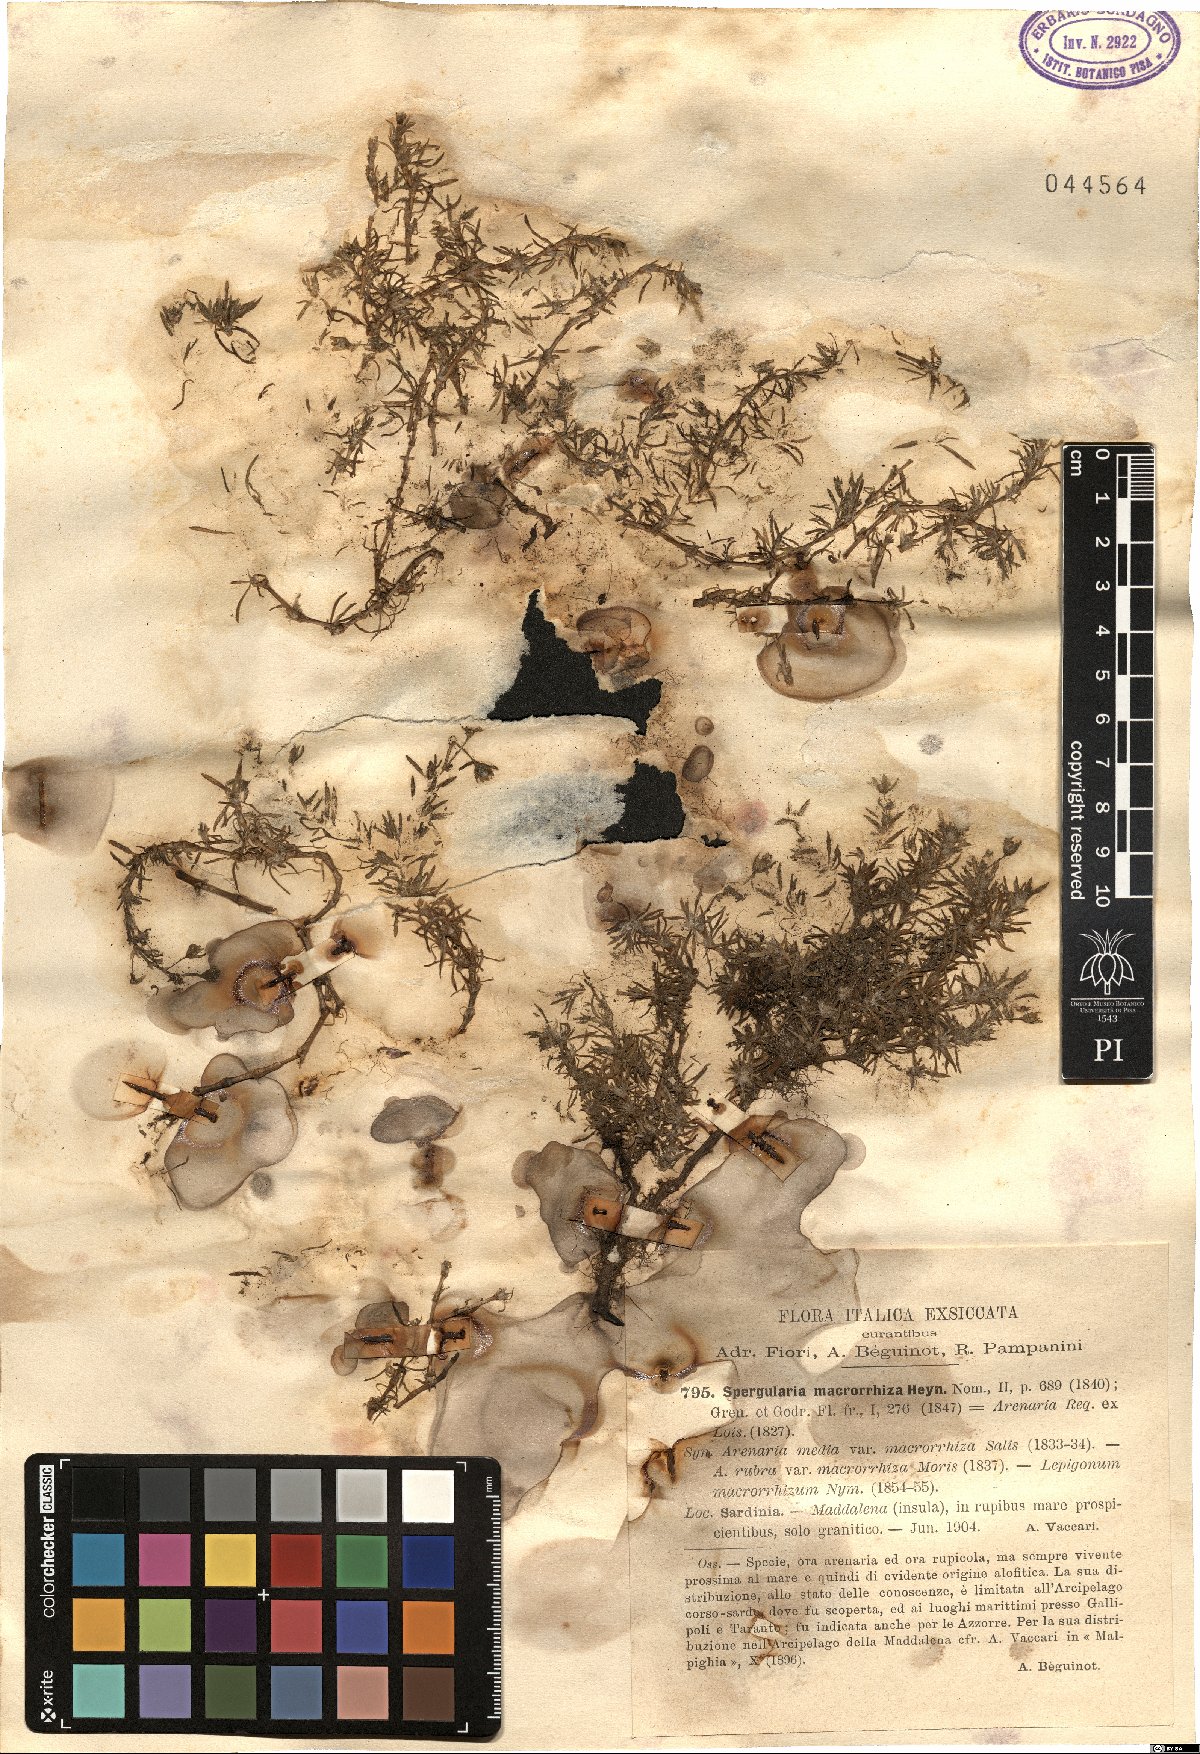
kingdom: Plantae
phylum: Tracheophyta
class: Magnoliopsida
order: Caryophyllales
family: Caryophyllaceae
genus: Spergularia
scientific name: Spergularia macrorrhiza
